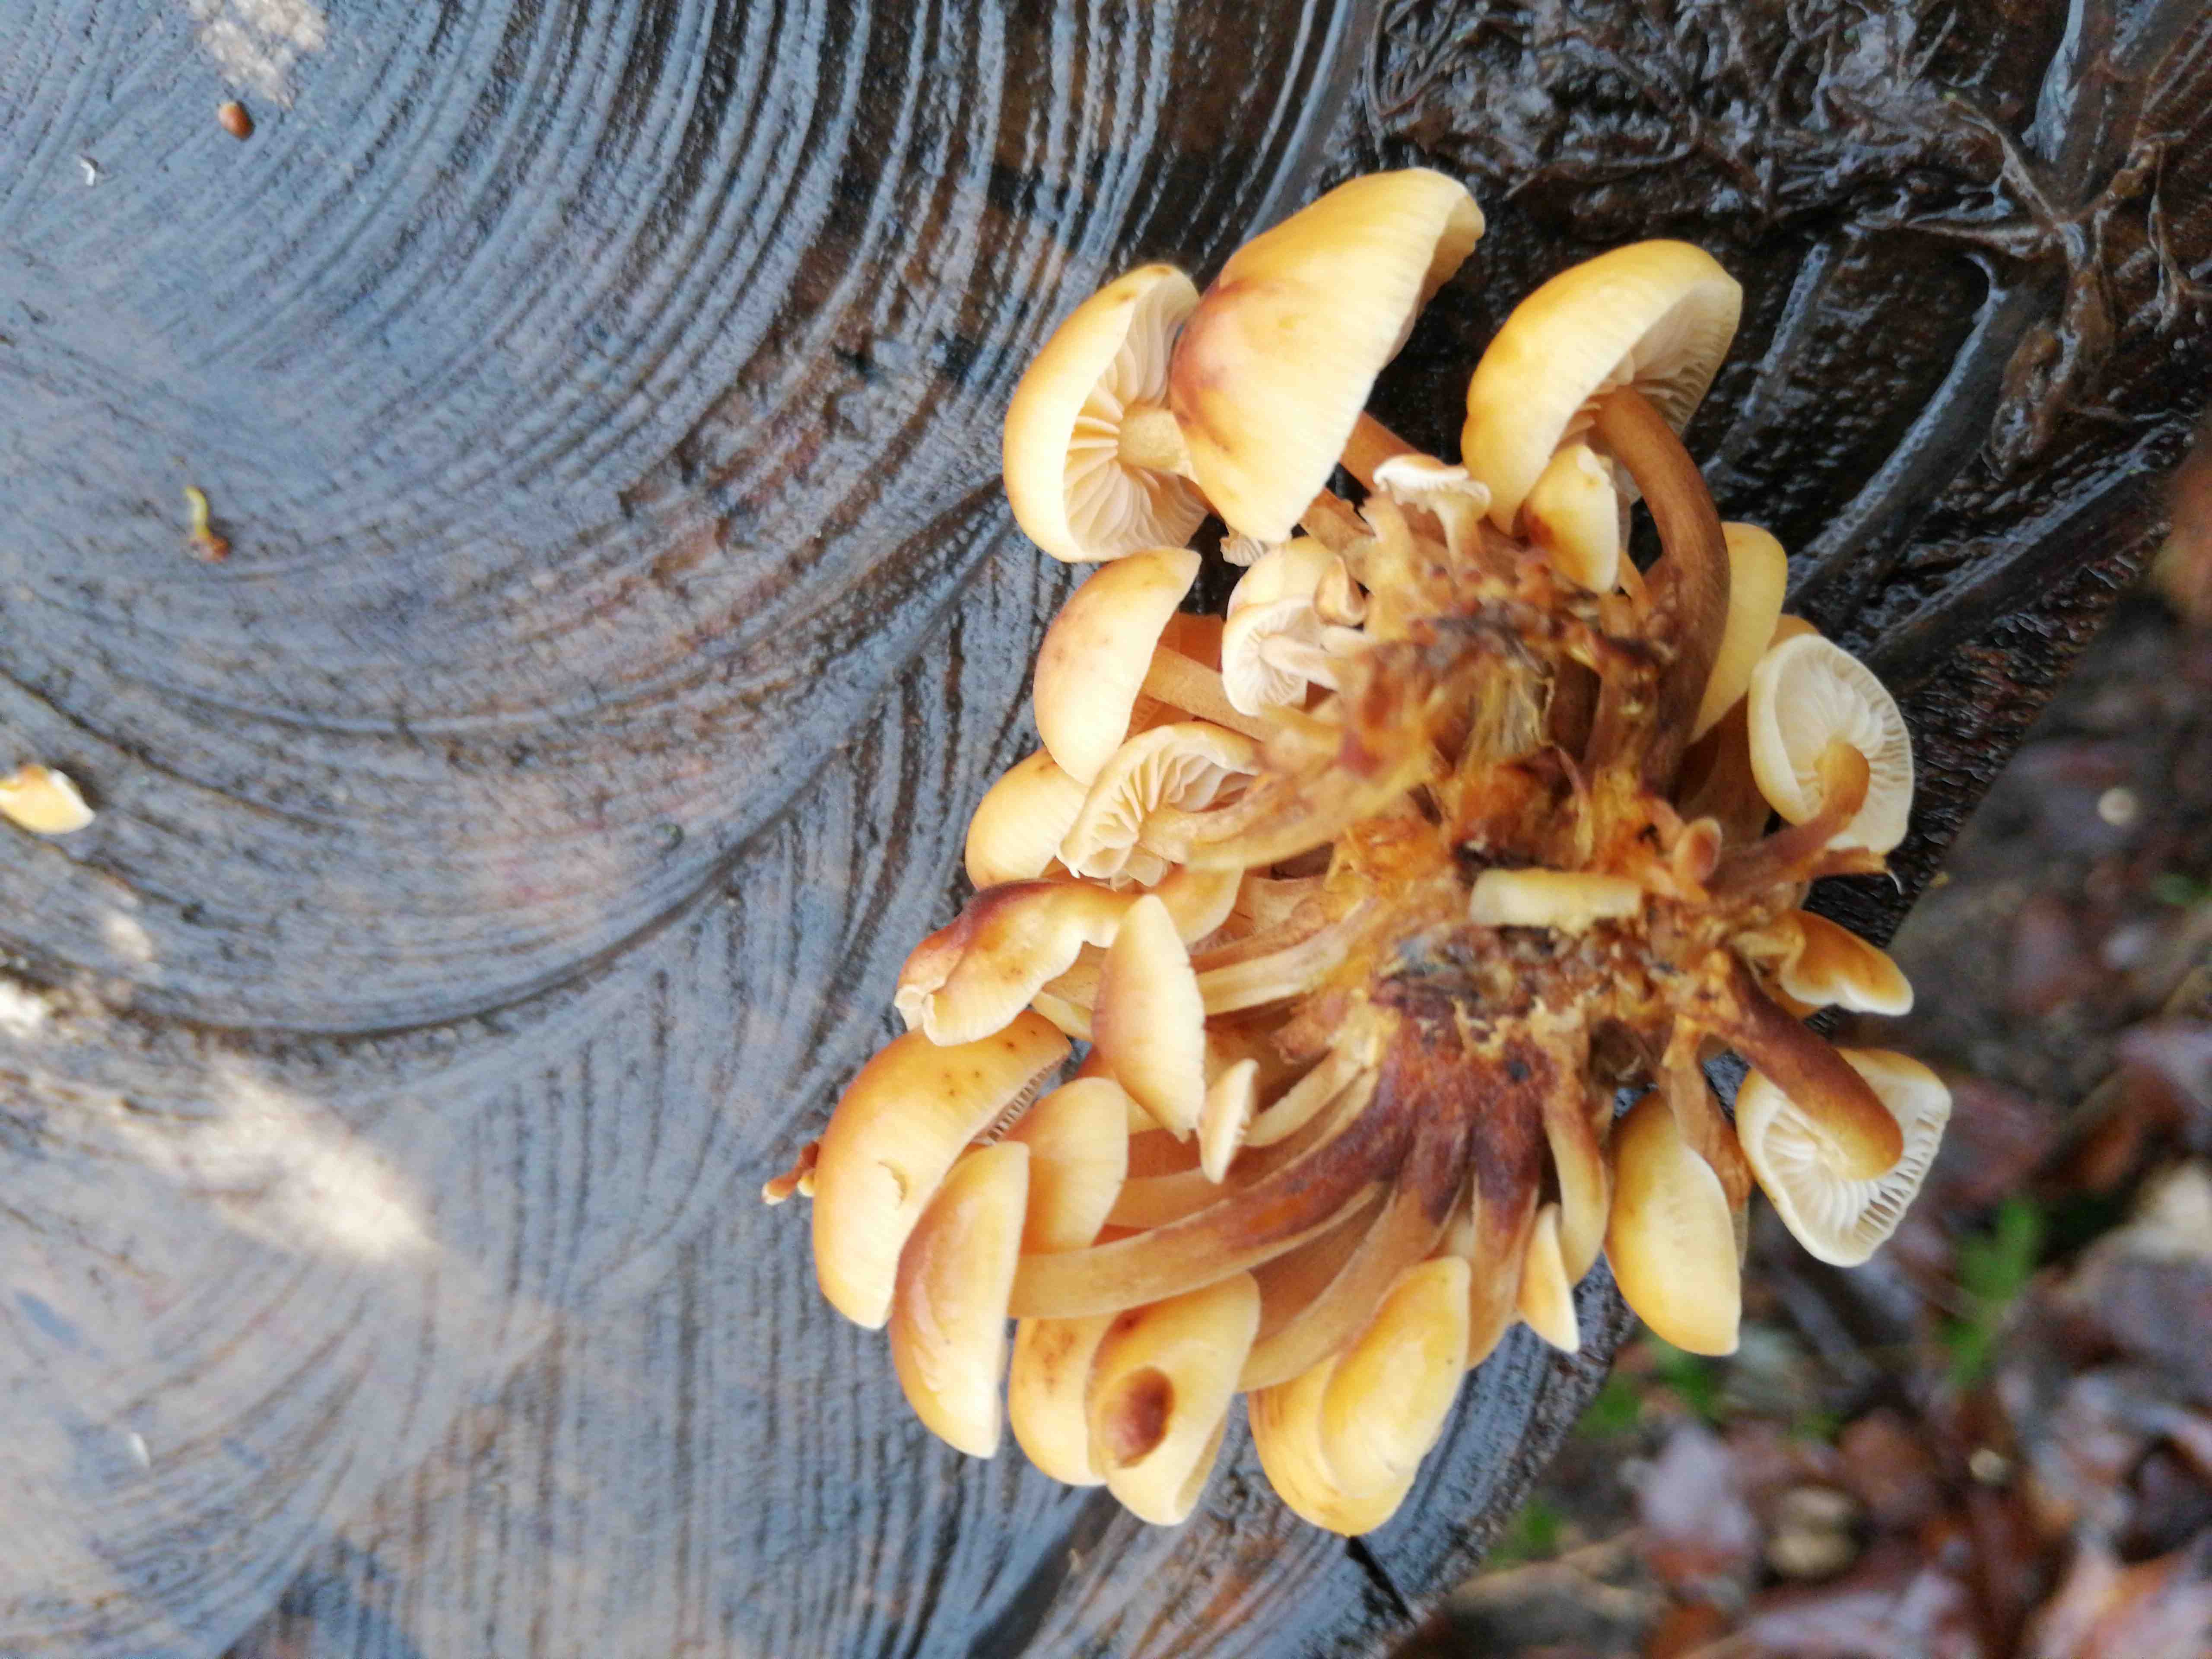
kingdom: Fungi
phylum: Basidiomycota
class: Agaricomycetes
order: Agaricales
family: Physalacriaceae
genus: Flammulina
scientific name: Flammulina velutipes
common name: gul fløjlsfod
